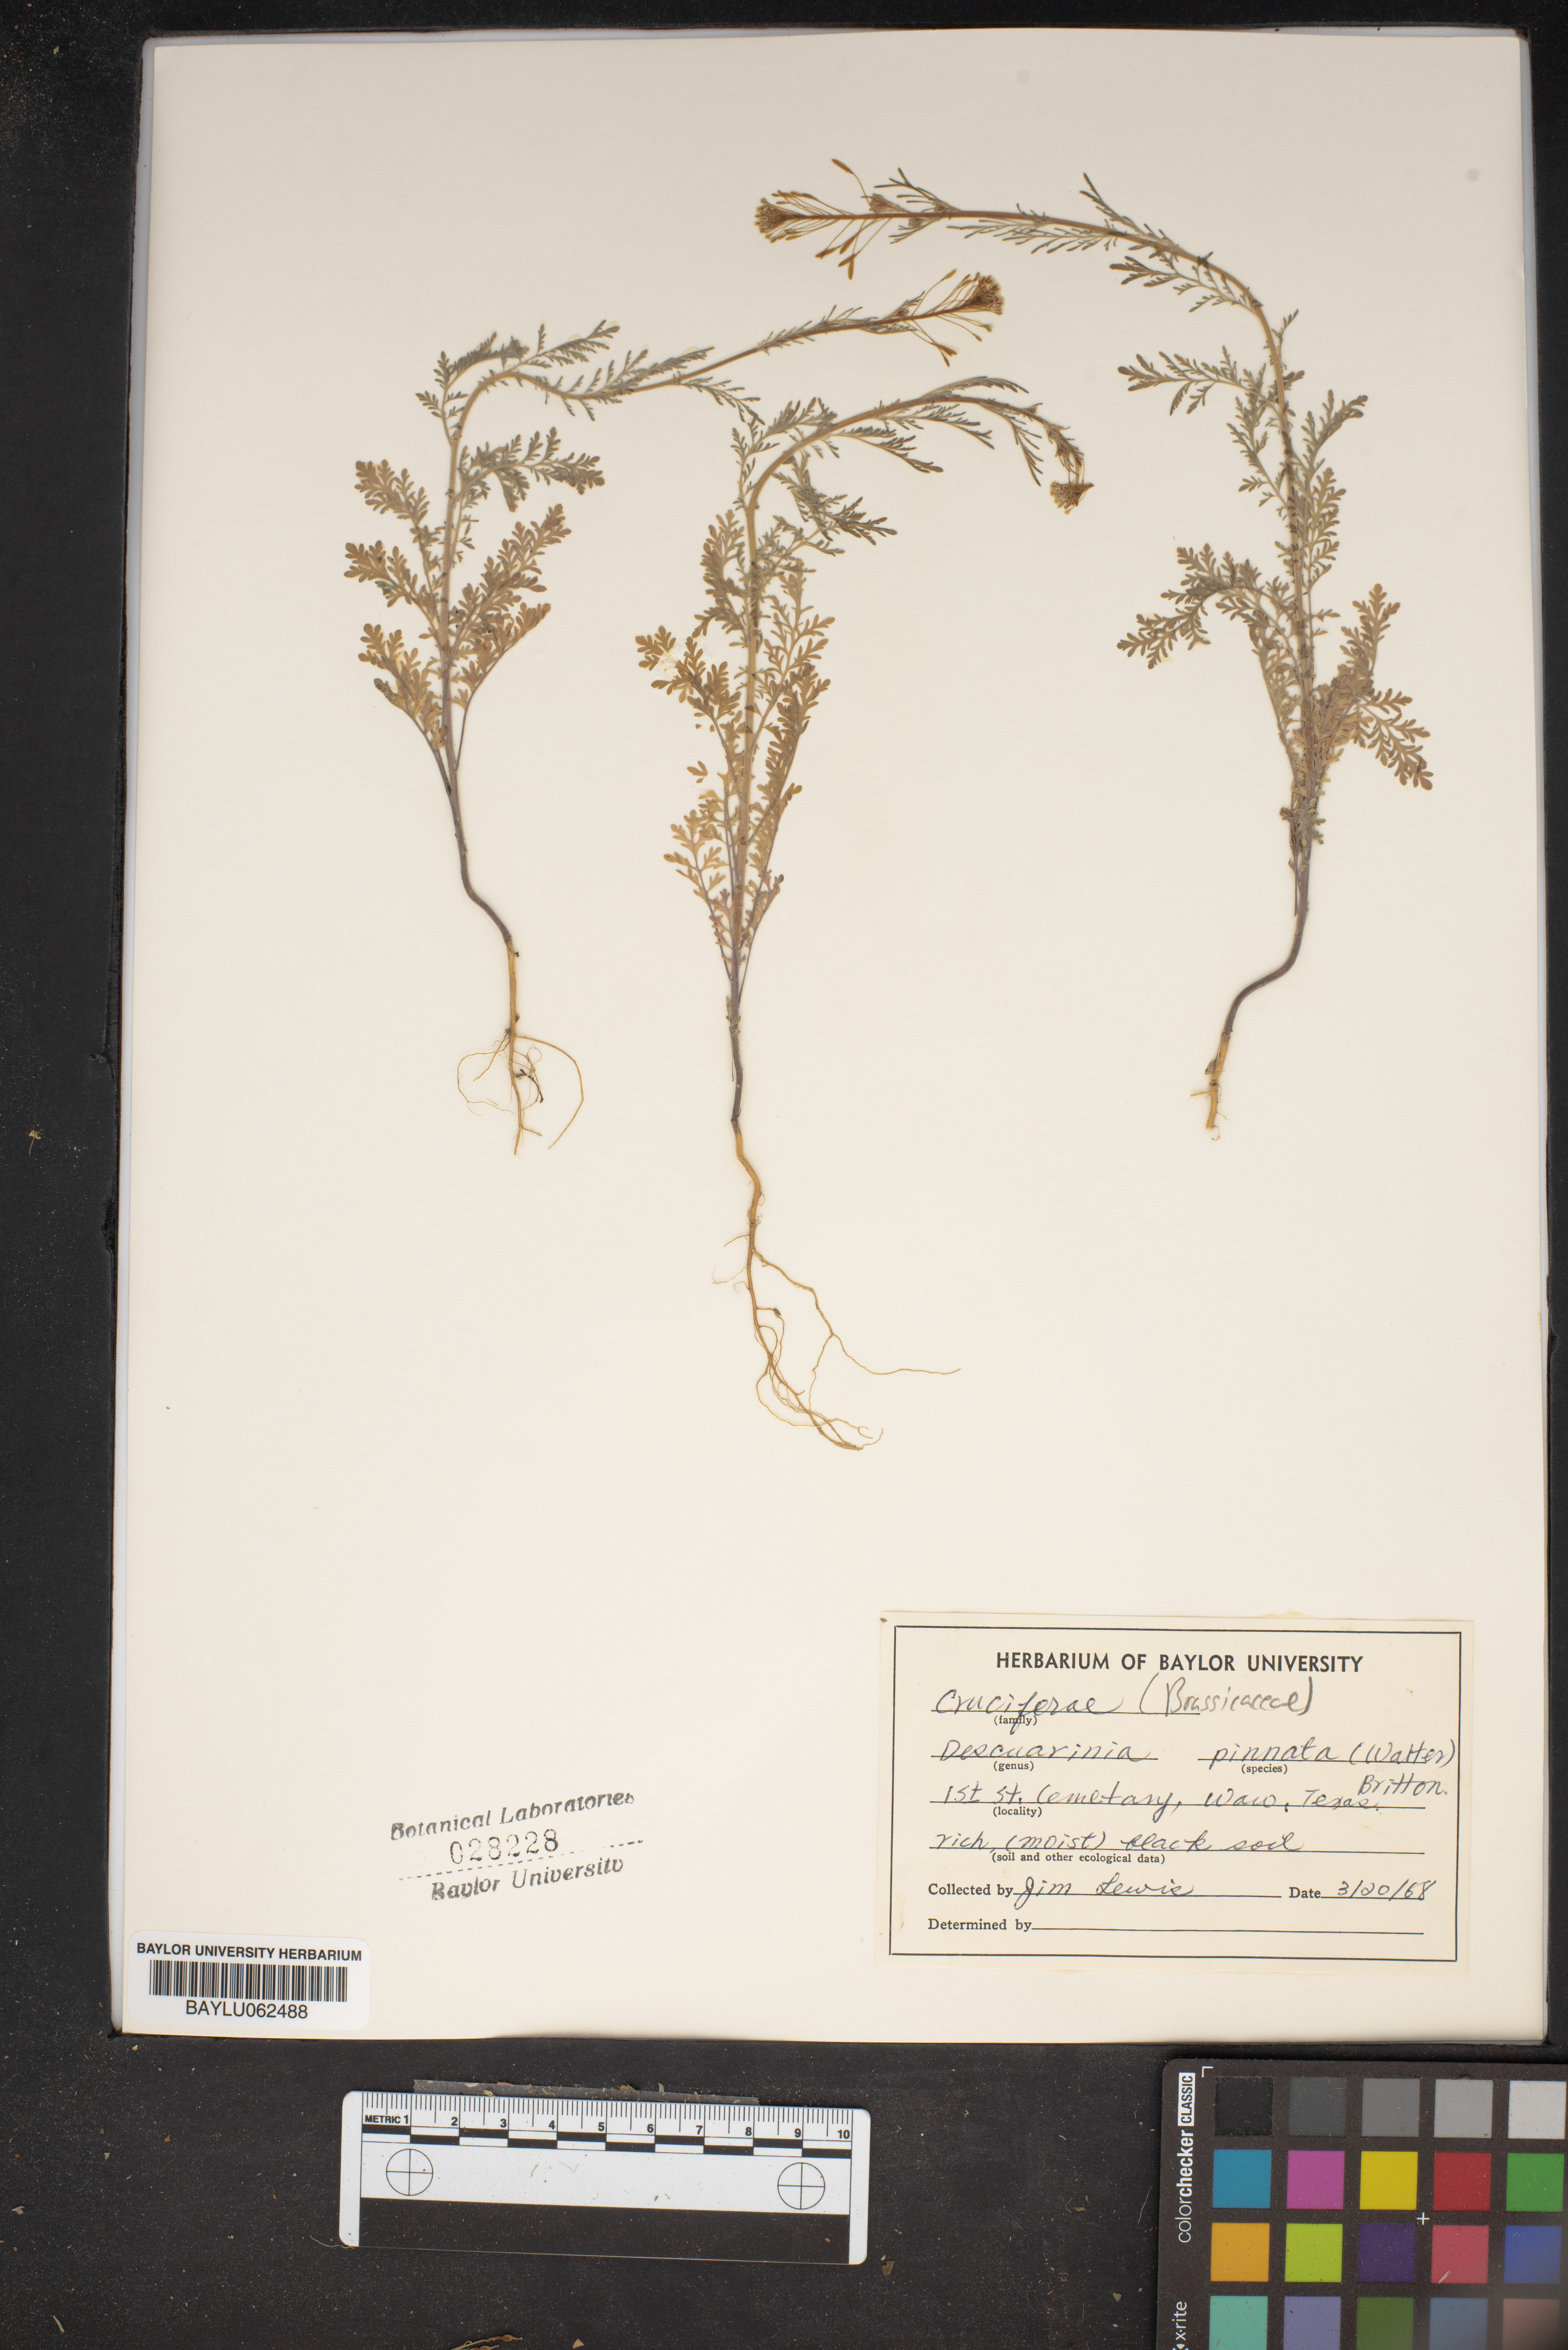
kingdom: Plantae
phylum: Tracheophyta
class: Magnoliopsida
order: Brassicales
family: Brassicaceae
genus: Descurainia
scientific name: Descurainia pinnata
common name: Western tansy mustard
